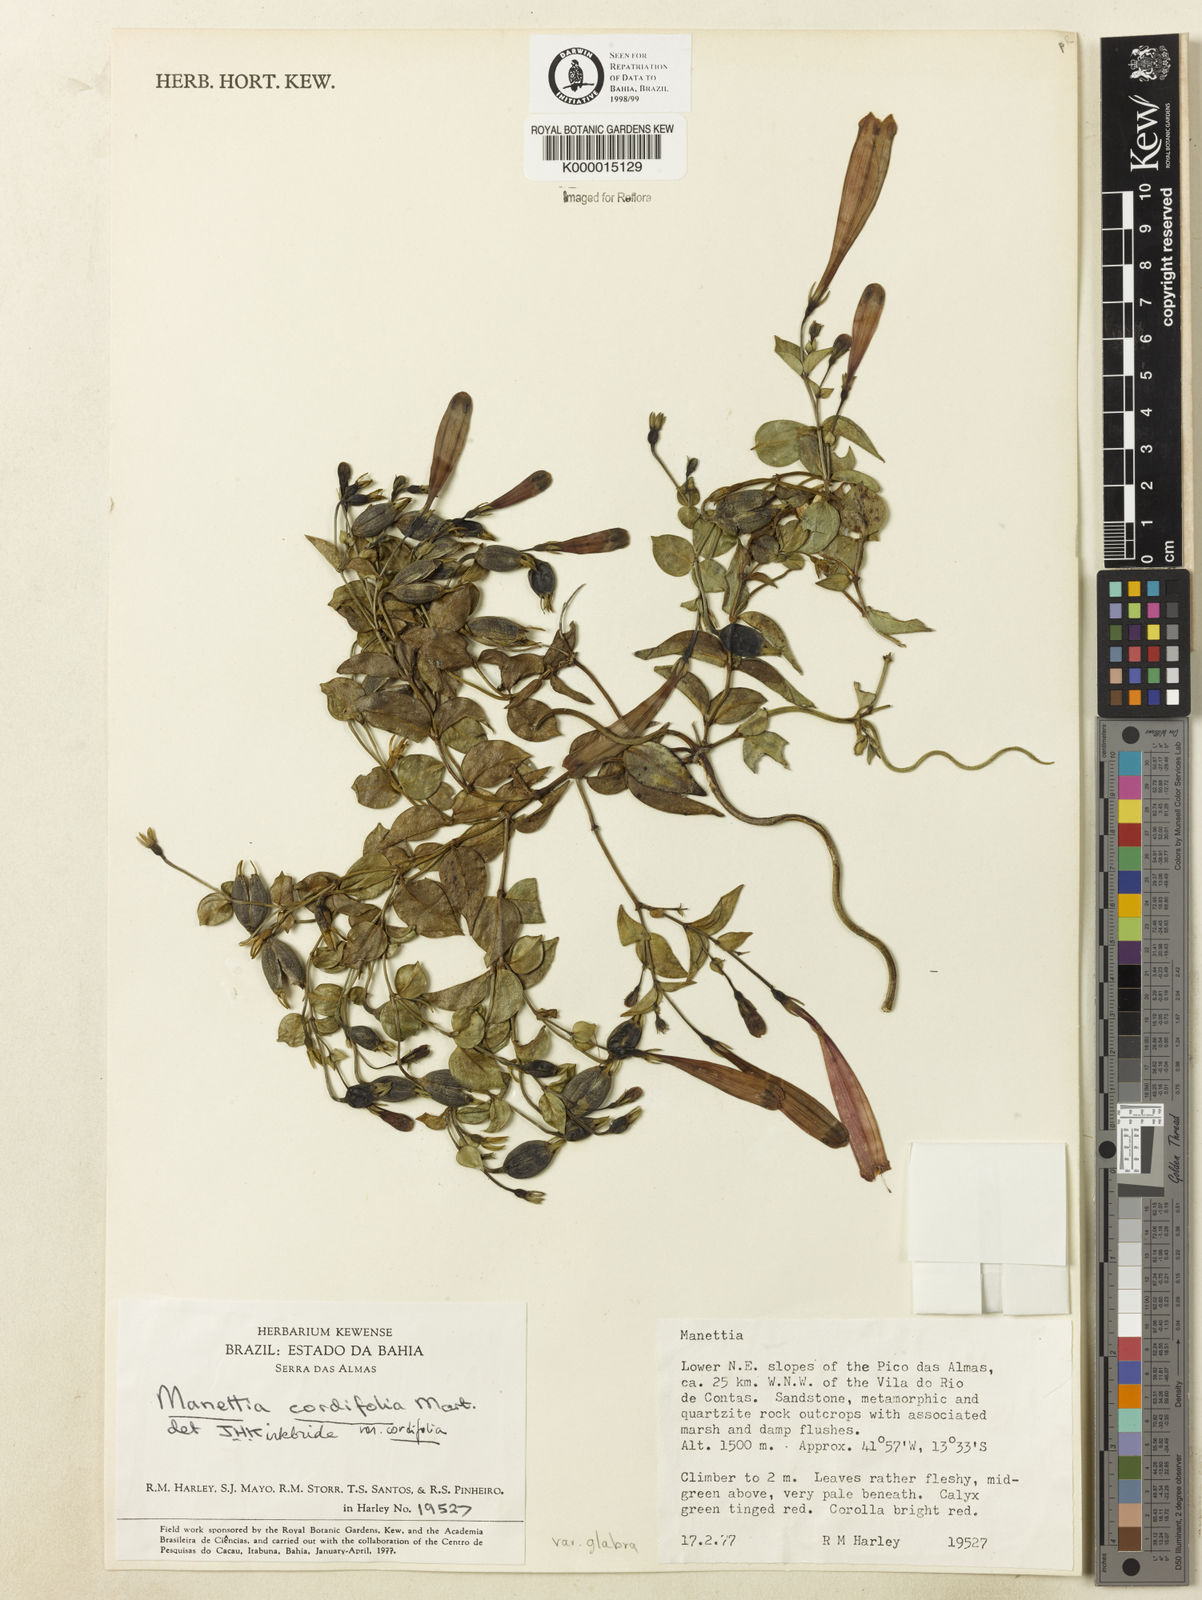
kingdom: Plantae
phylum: Tracheophyta
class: Magnoliopsida
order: Gentianales
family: Rubiaceae
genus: Manettia
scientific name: Manettia cordifolia
